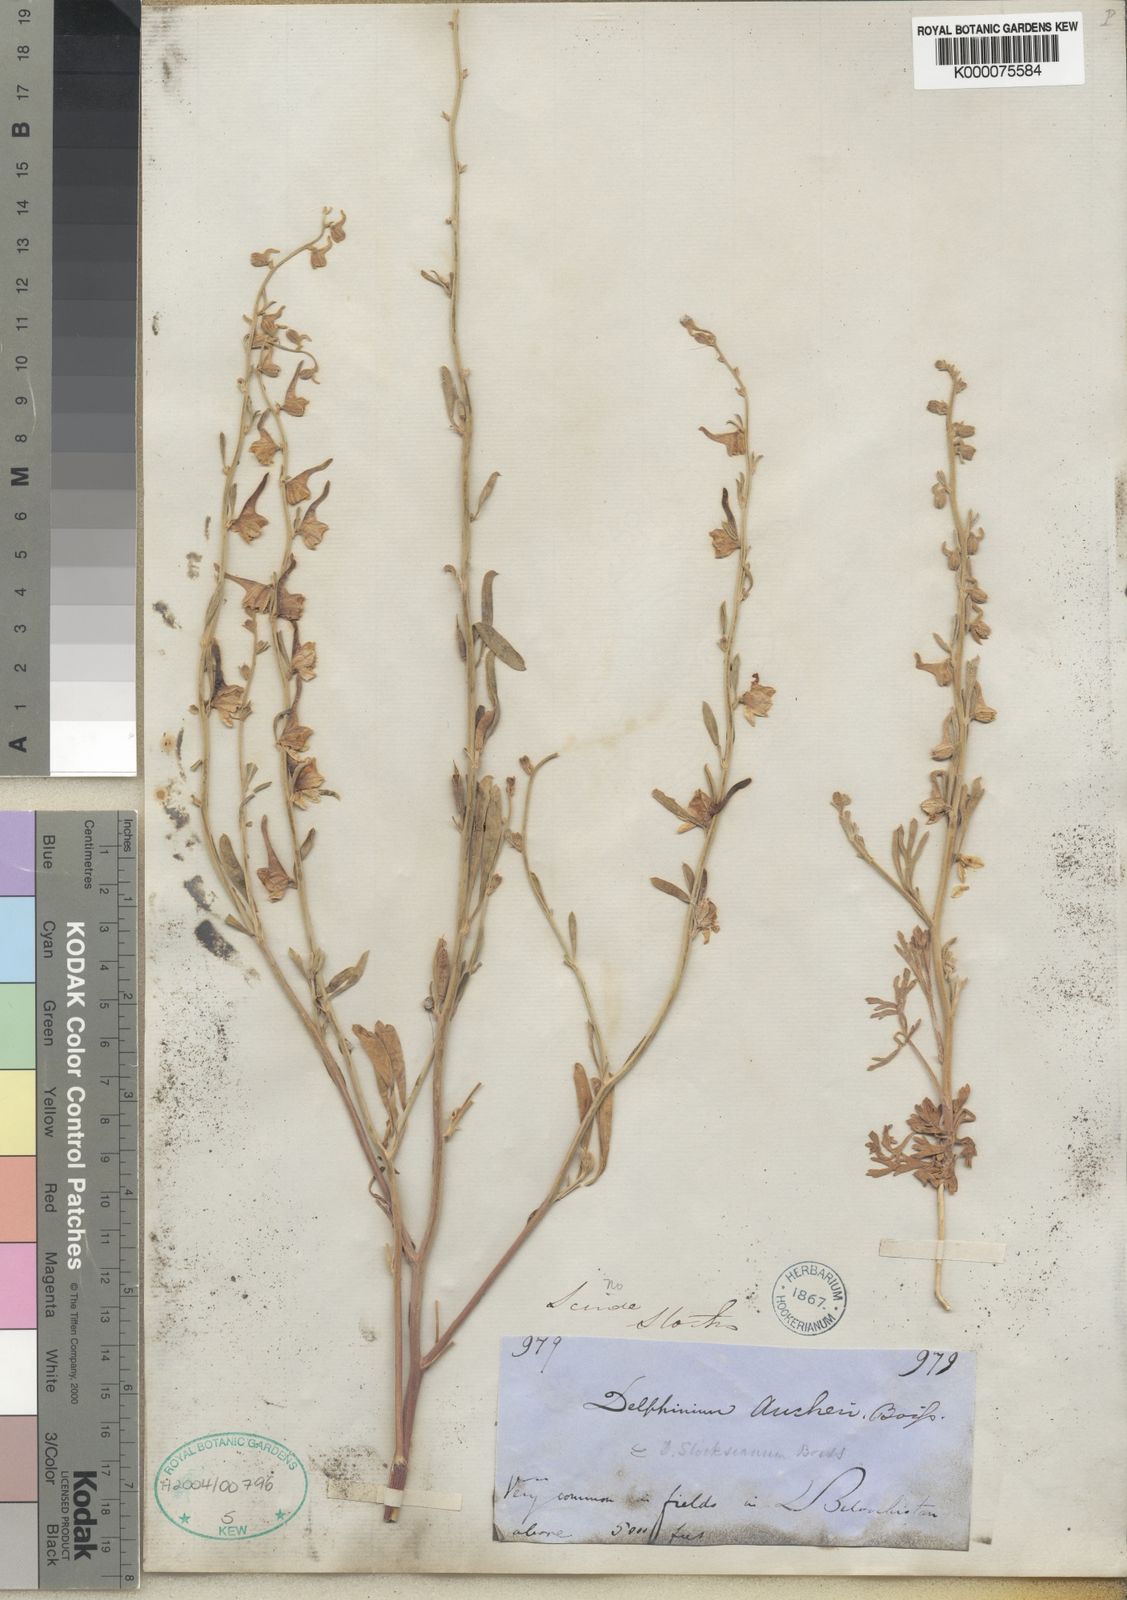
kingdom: Plantae
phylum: Tracheophyta
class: Magnoliopsida
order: Ranunculales
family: Ranunculaceae
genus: Delphinium
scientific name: Delphinium stocksianum
